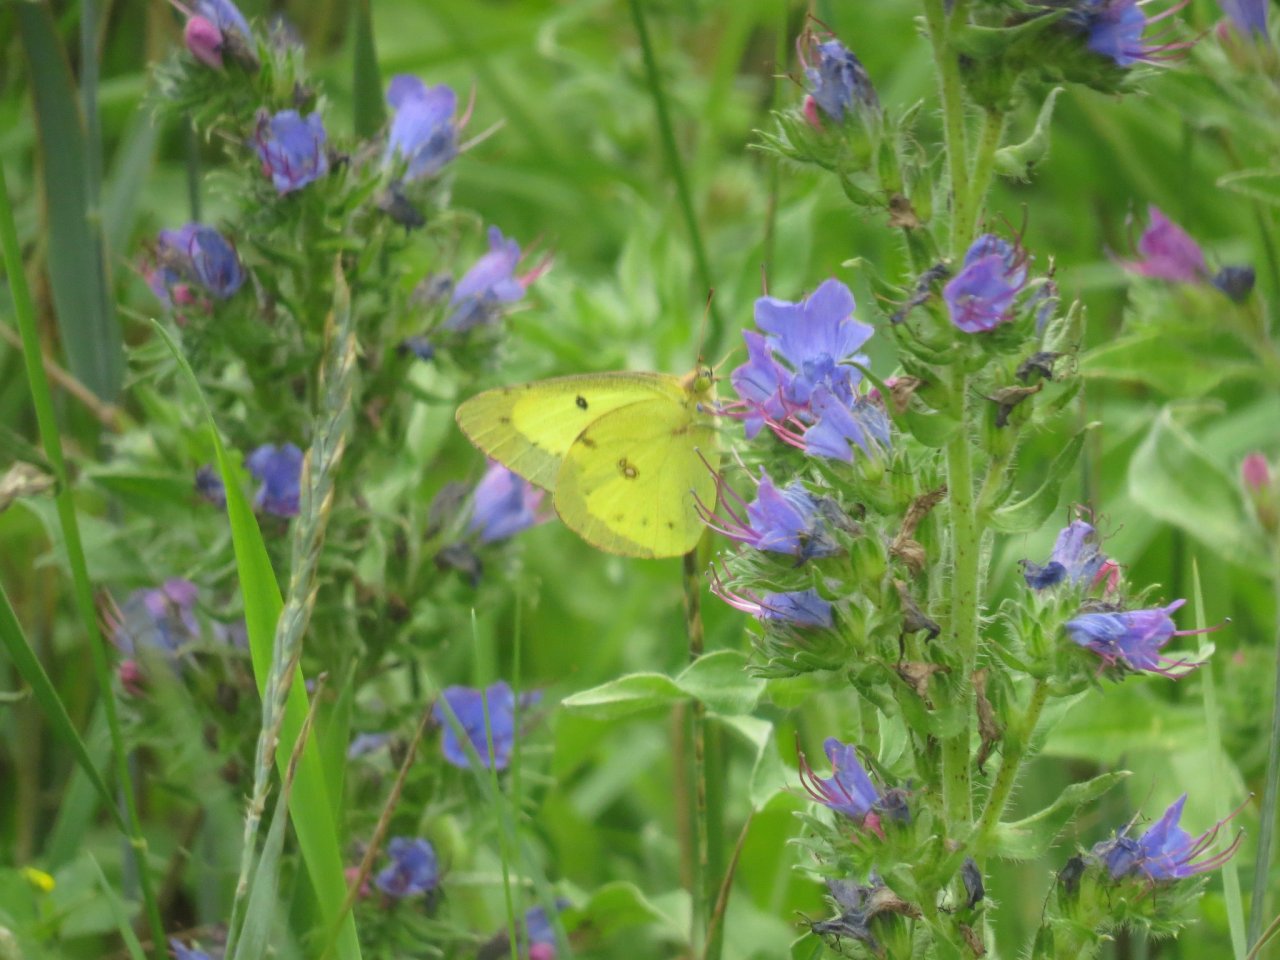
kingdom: Animalia
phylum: Arthropoda
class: Insecta
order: Lepidoptera
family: Pieridae
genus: Colias
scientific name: Colias philodice
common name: Clouded Sulphur
